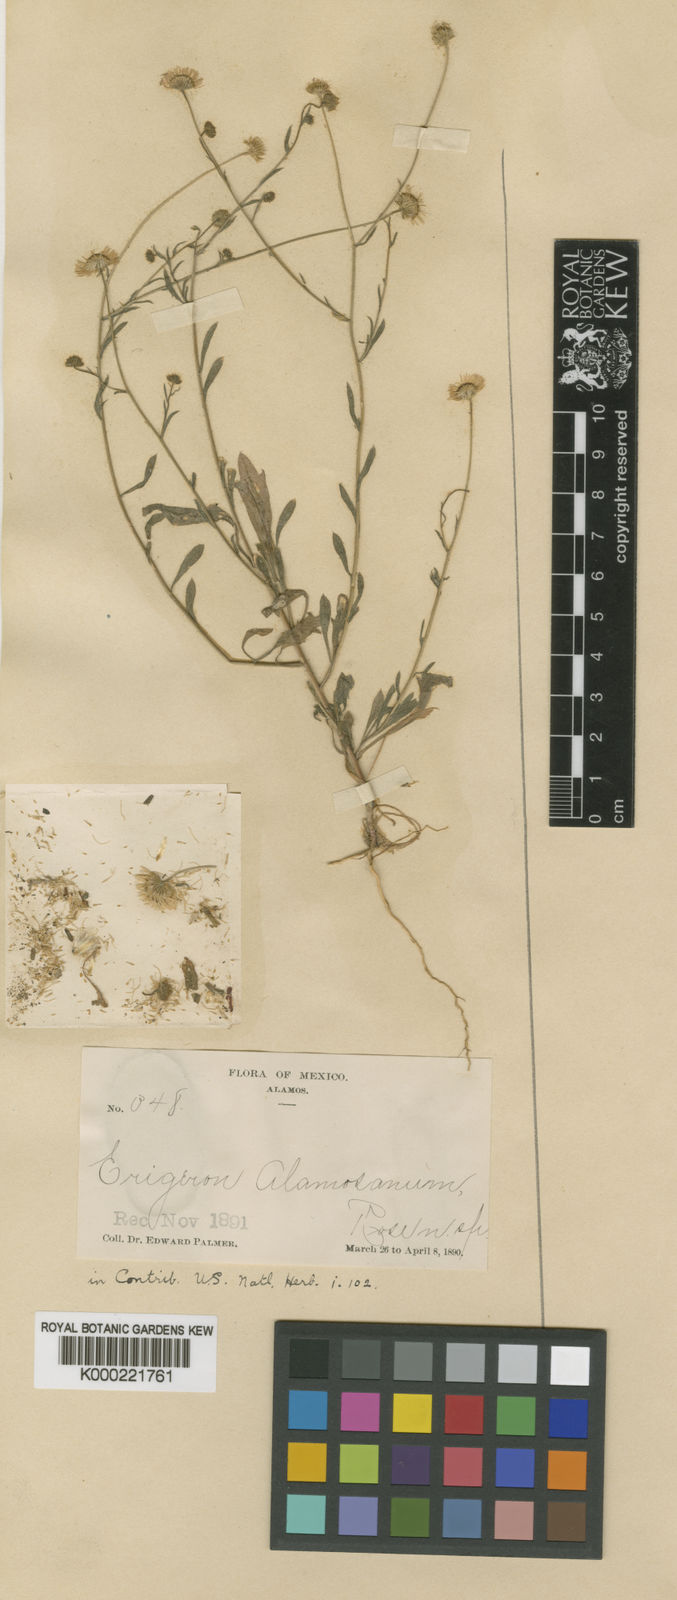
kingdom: Plantae
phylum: Tracheophyta
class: Magnoliopsida
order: Asterales
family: Asteraceae
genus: Erigeron
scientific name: Erigeron velutipes
